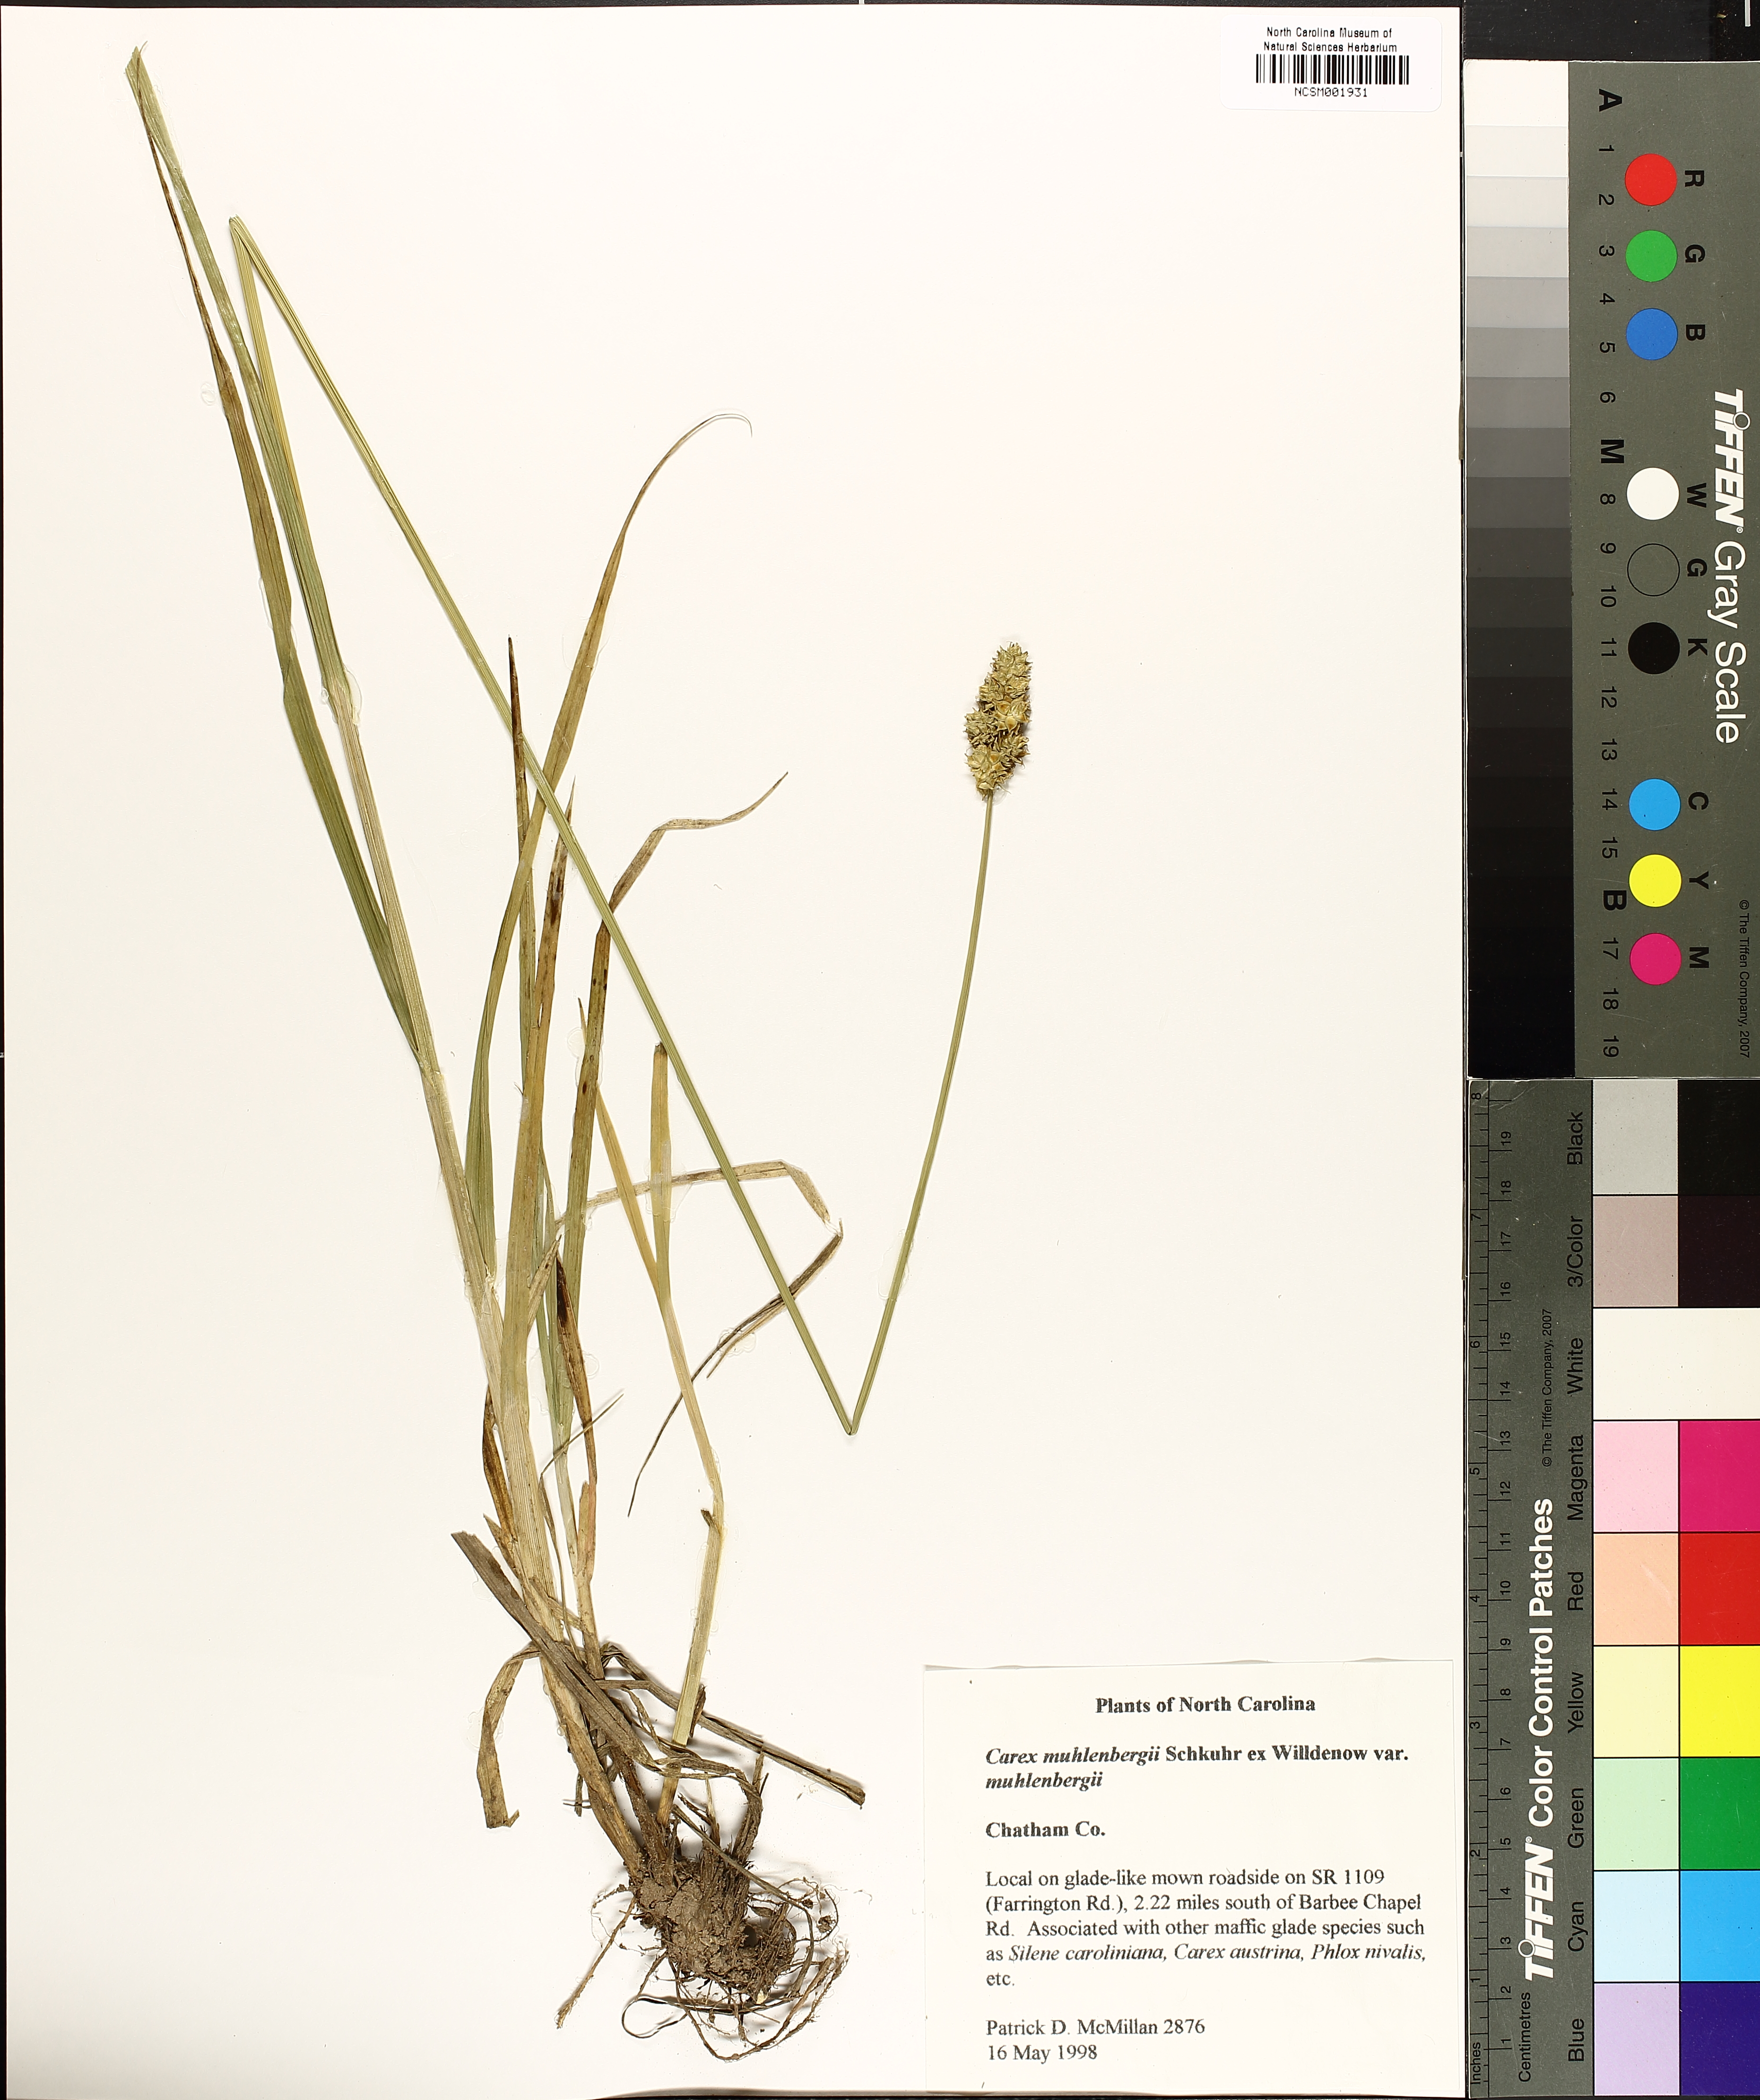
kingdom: Plantae
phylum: Tracheophyta
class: Liliopsida
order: Poales
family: Cyperaceae
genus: Carex
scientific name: Carex vulpinoidea
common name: American fox-sedge
